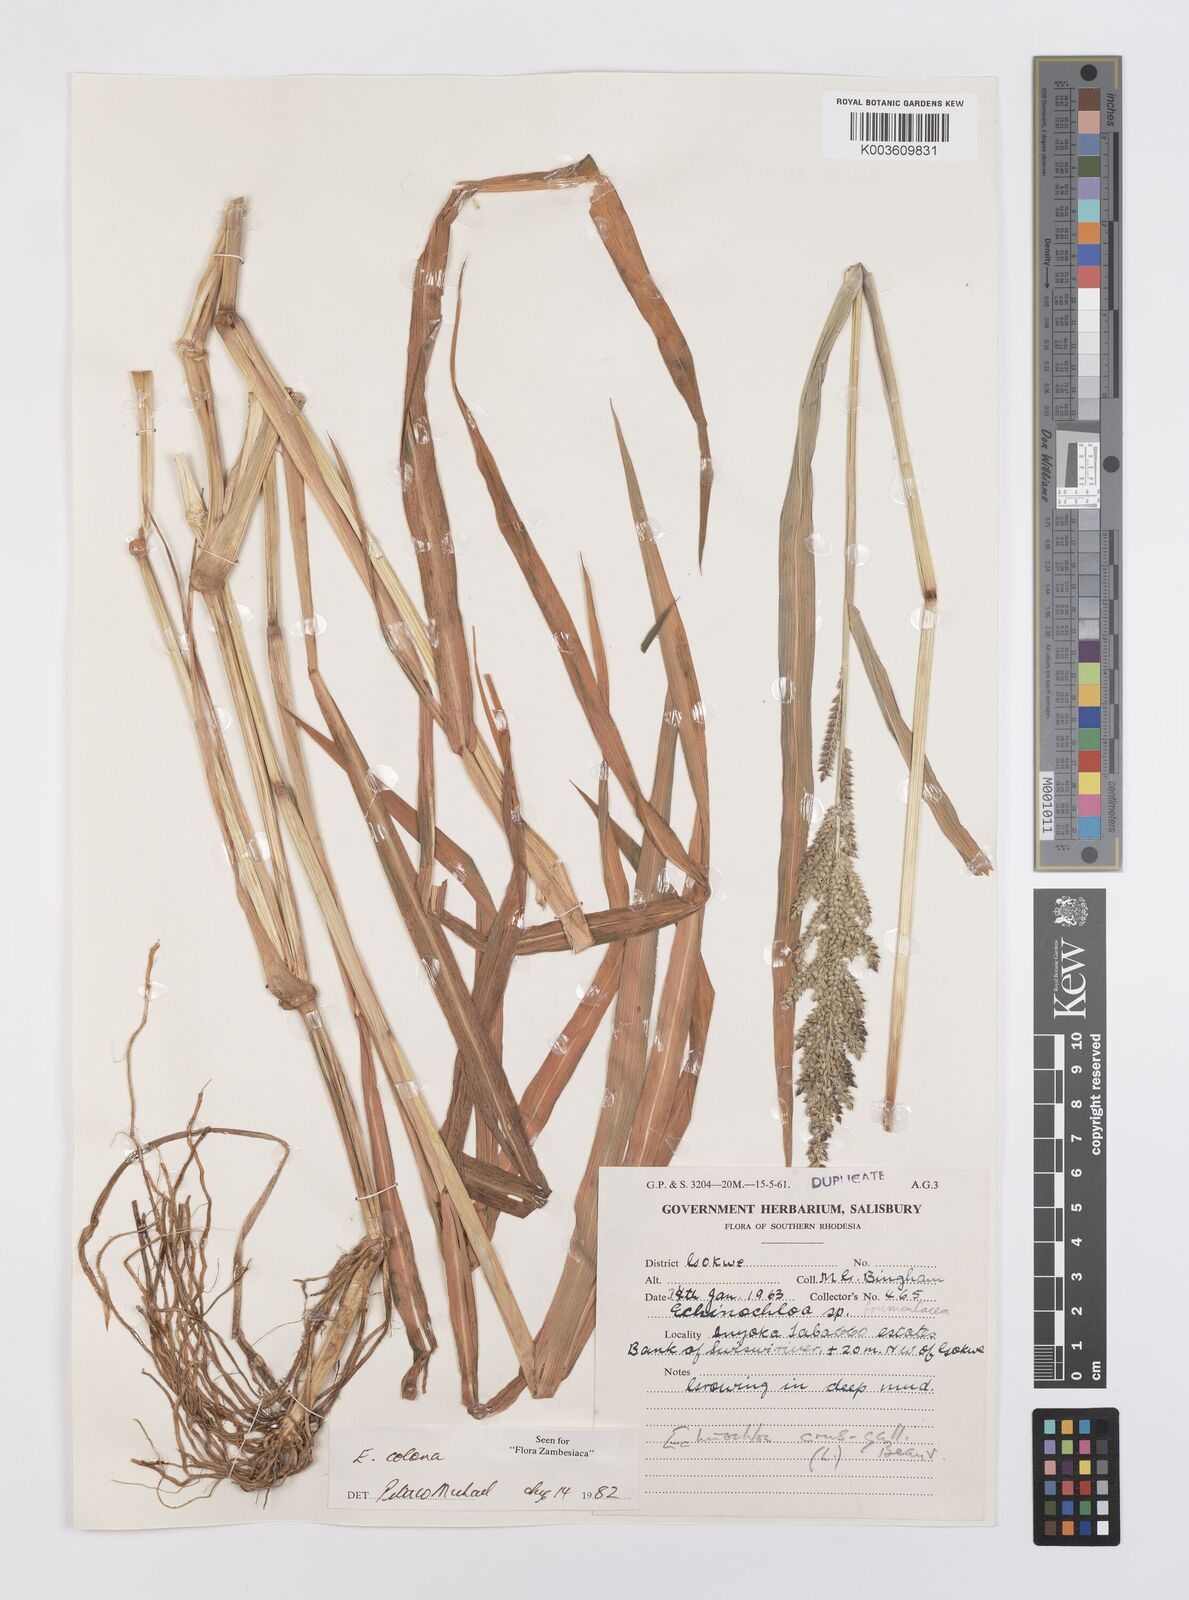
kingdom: Plantae
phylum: Tracheophyta
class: Liliopsida
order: Poales
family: Poaceae
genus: Echinochloa
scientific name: Echinochloa colonum
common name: Jungle rice
